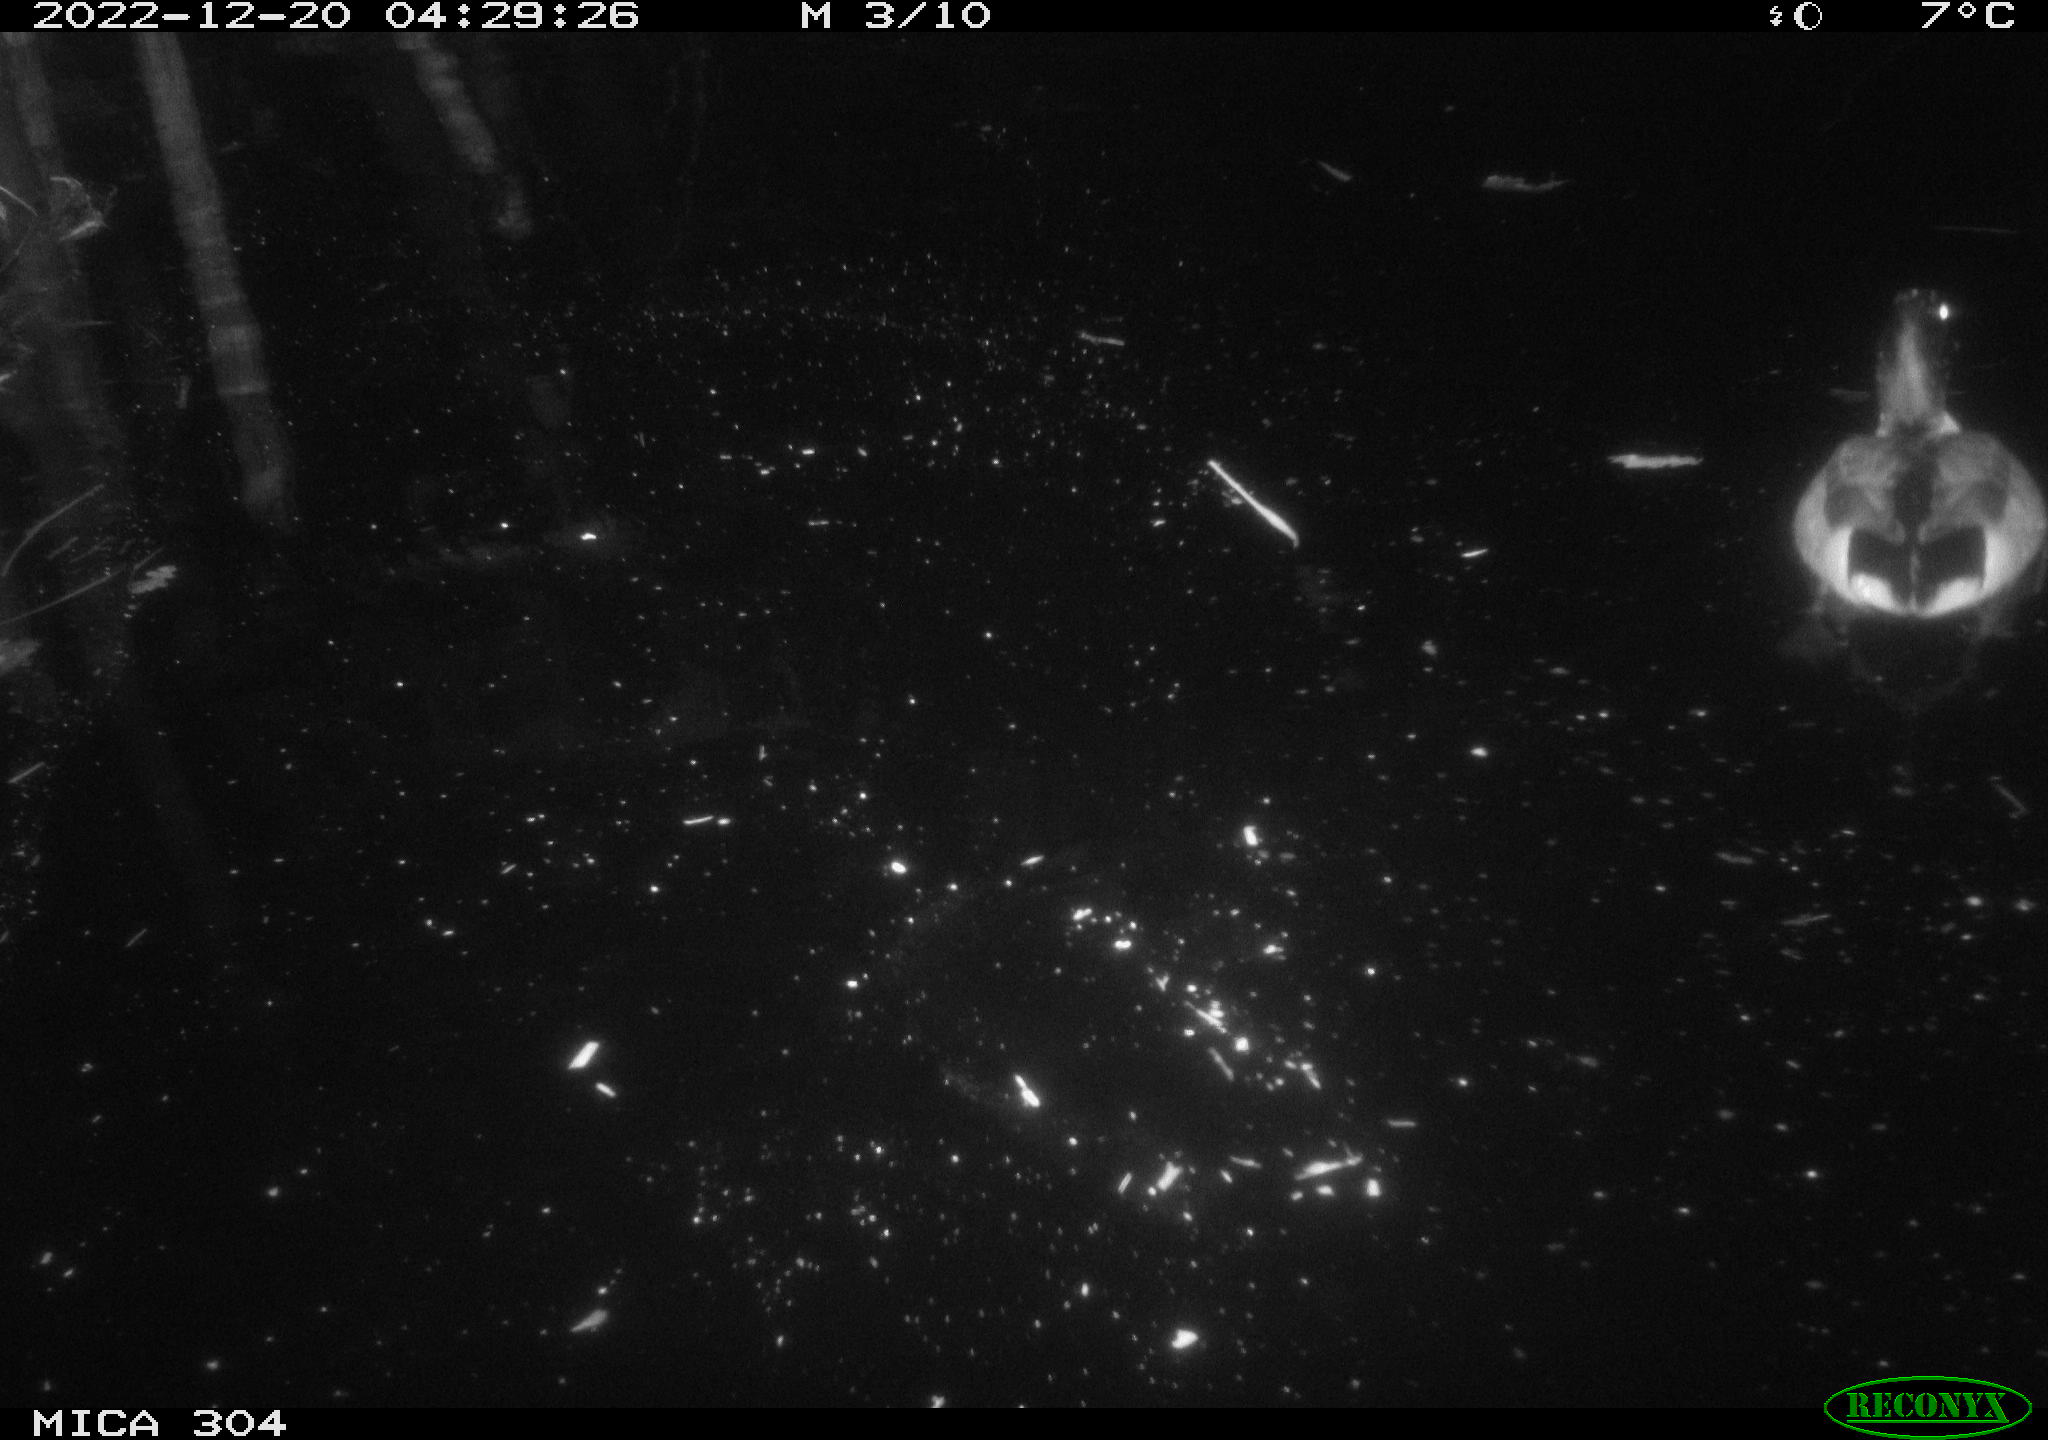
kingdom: Animalia
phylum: Chordata
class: Aves
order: Anseriformes
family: Anatidae
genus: Anas
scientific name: Anas
